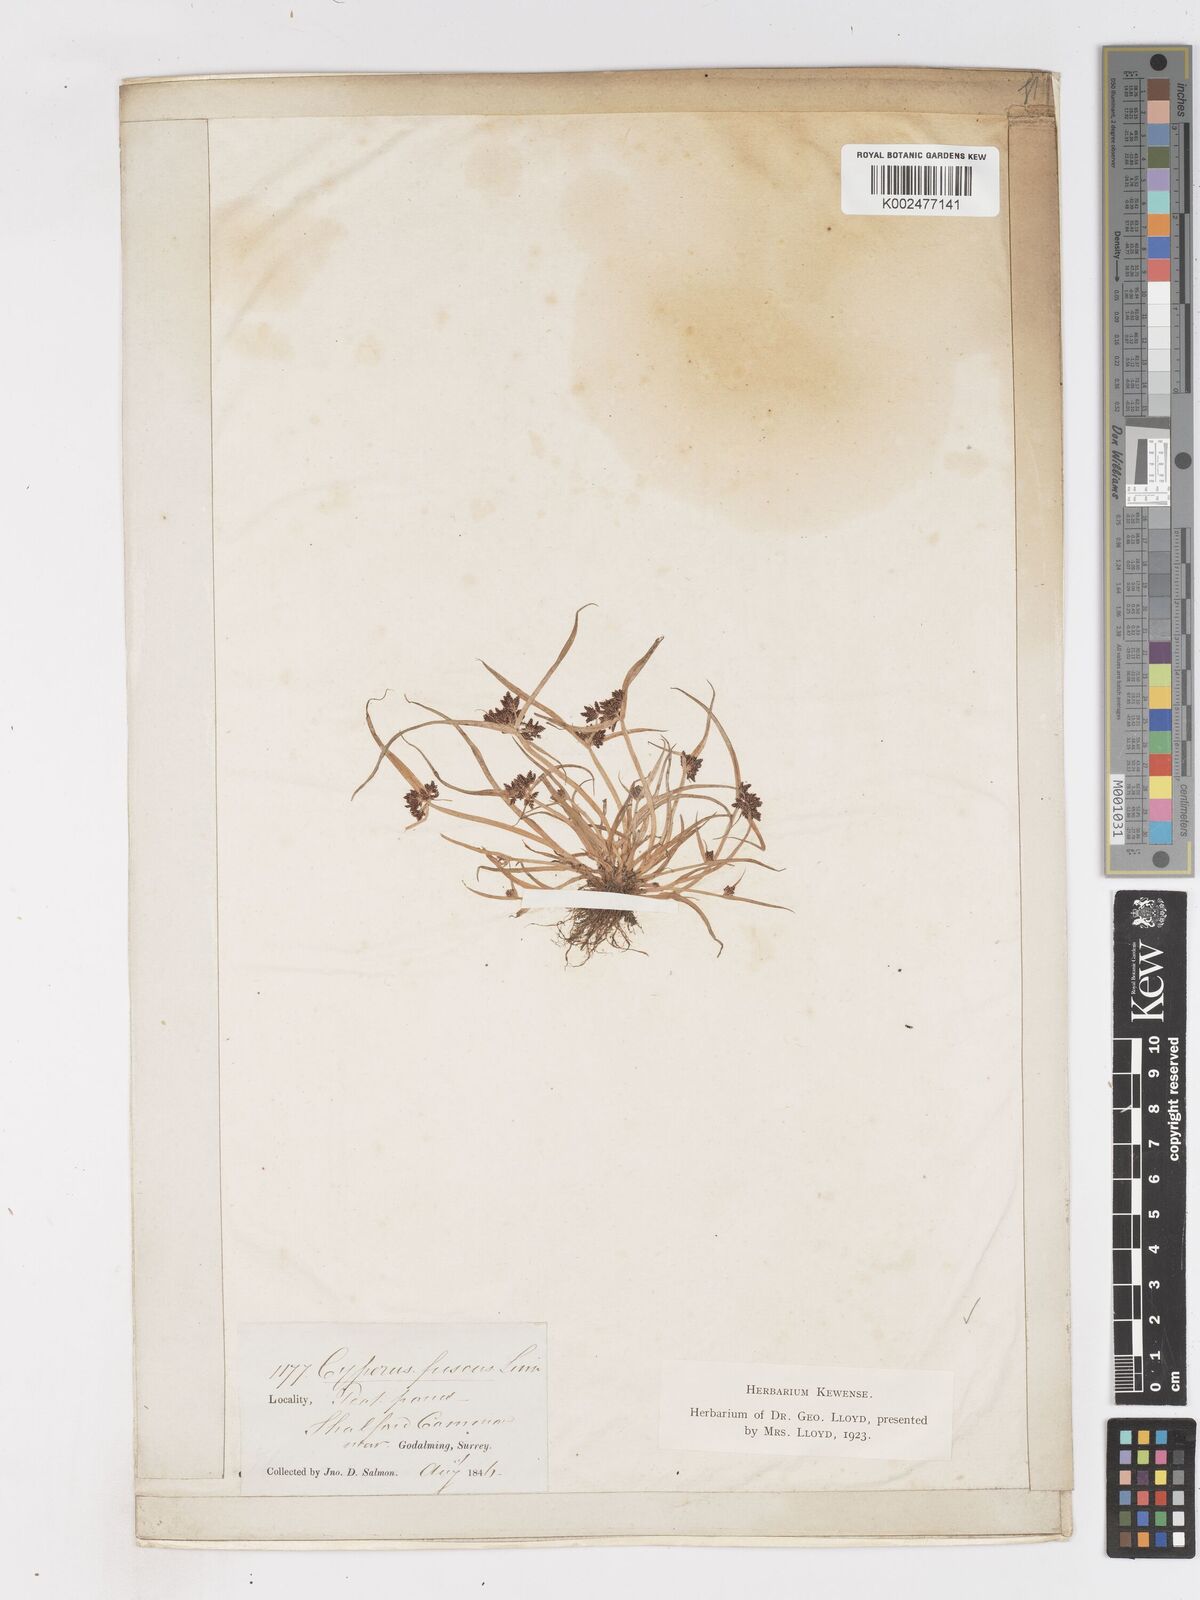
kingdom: Plantae
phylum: Tracheophyta
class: Liliopsida
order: Poales
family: Cyperaceae
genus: Cyperus
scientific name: Cyperus fuscus
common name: Brown galingale
